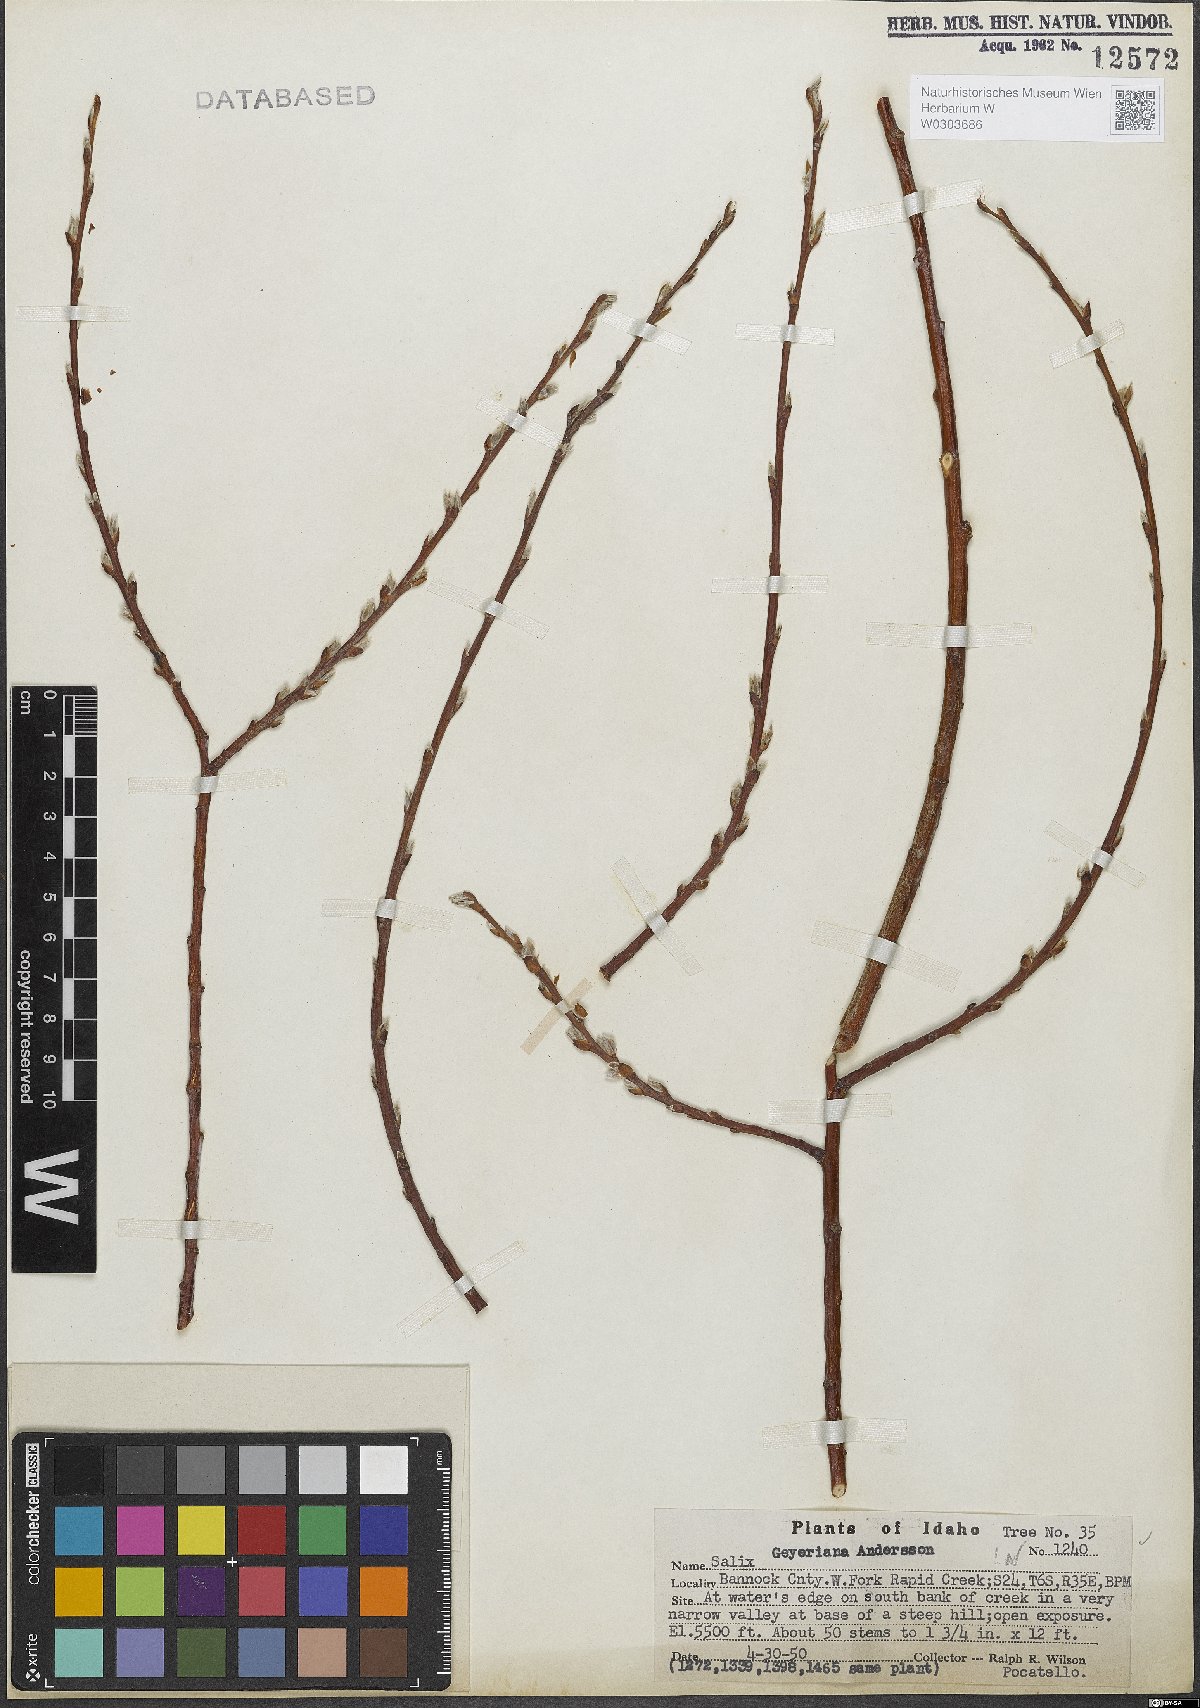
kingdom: Plantae
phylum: Tracheophyta
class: Magnoliopsida
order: Malpighiales
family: Salicaceae
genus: Salix
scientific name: Salix geyeriana
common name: Geyer's willow
